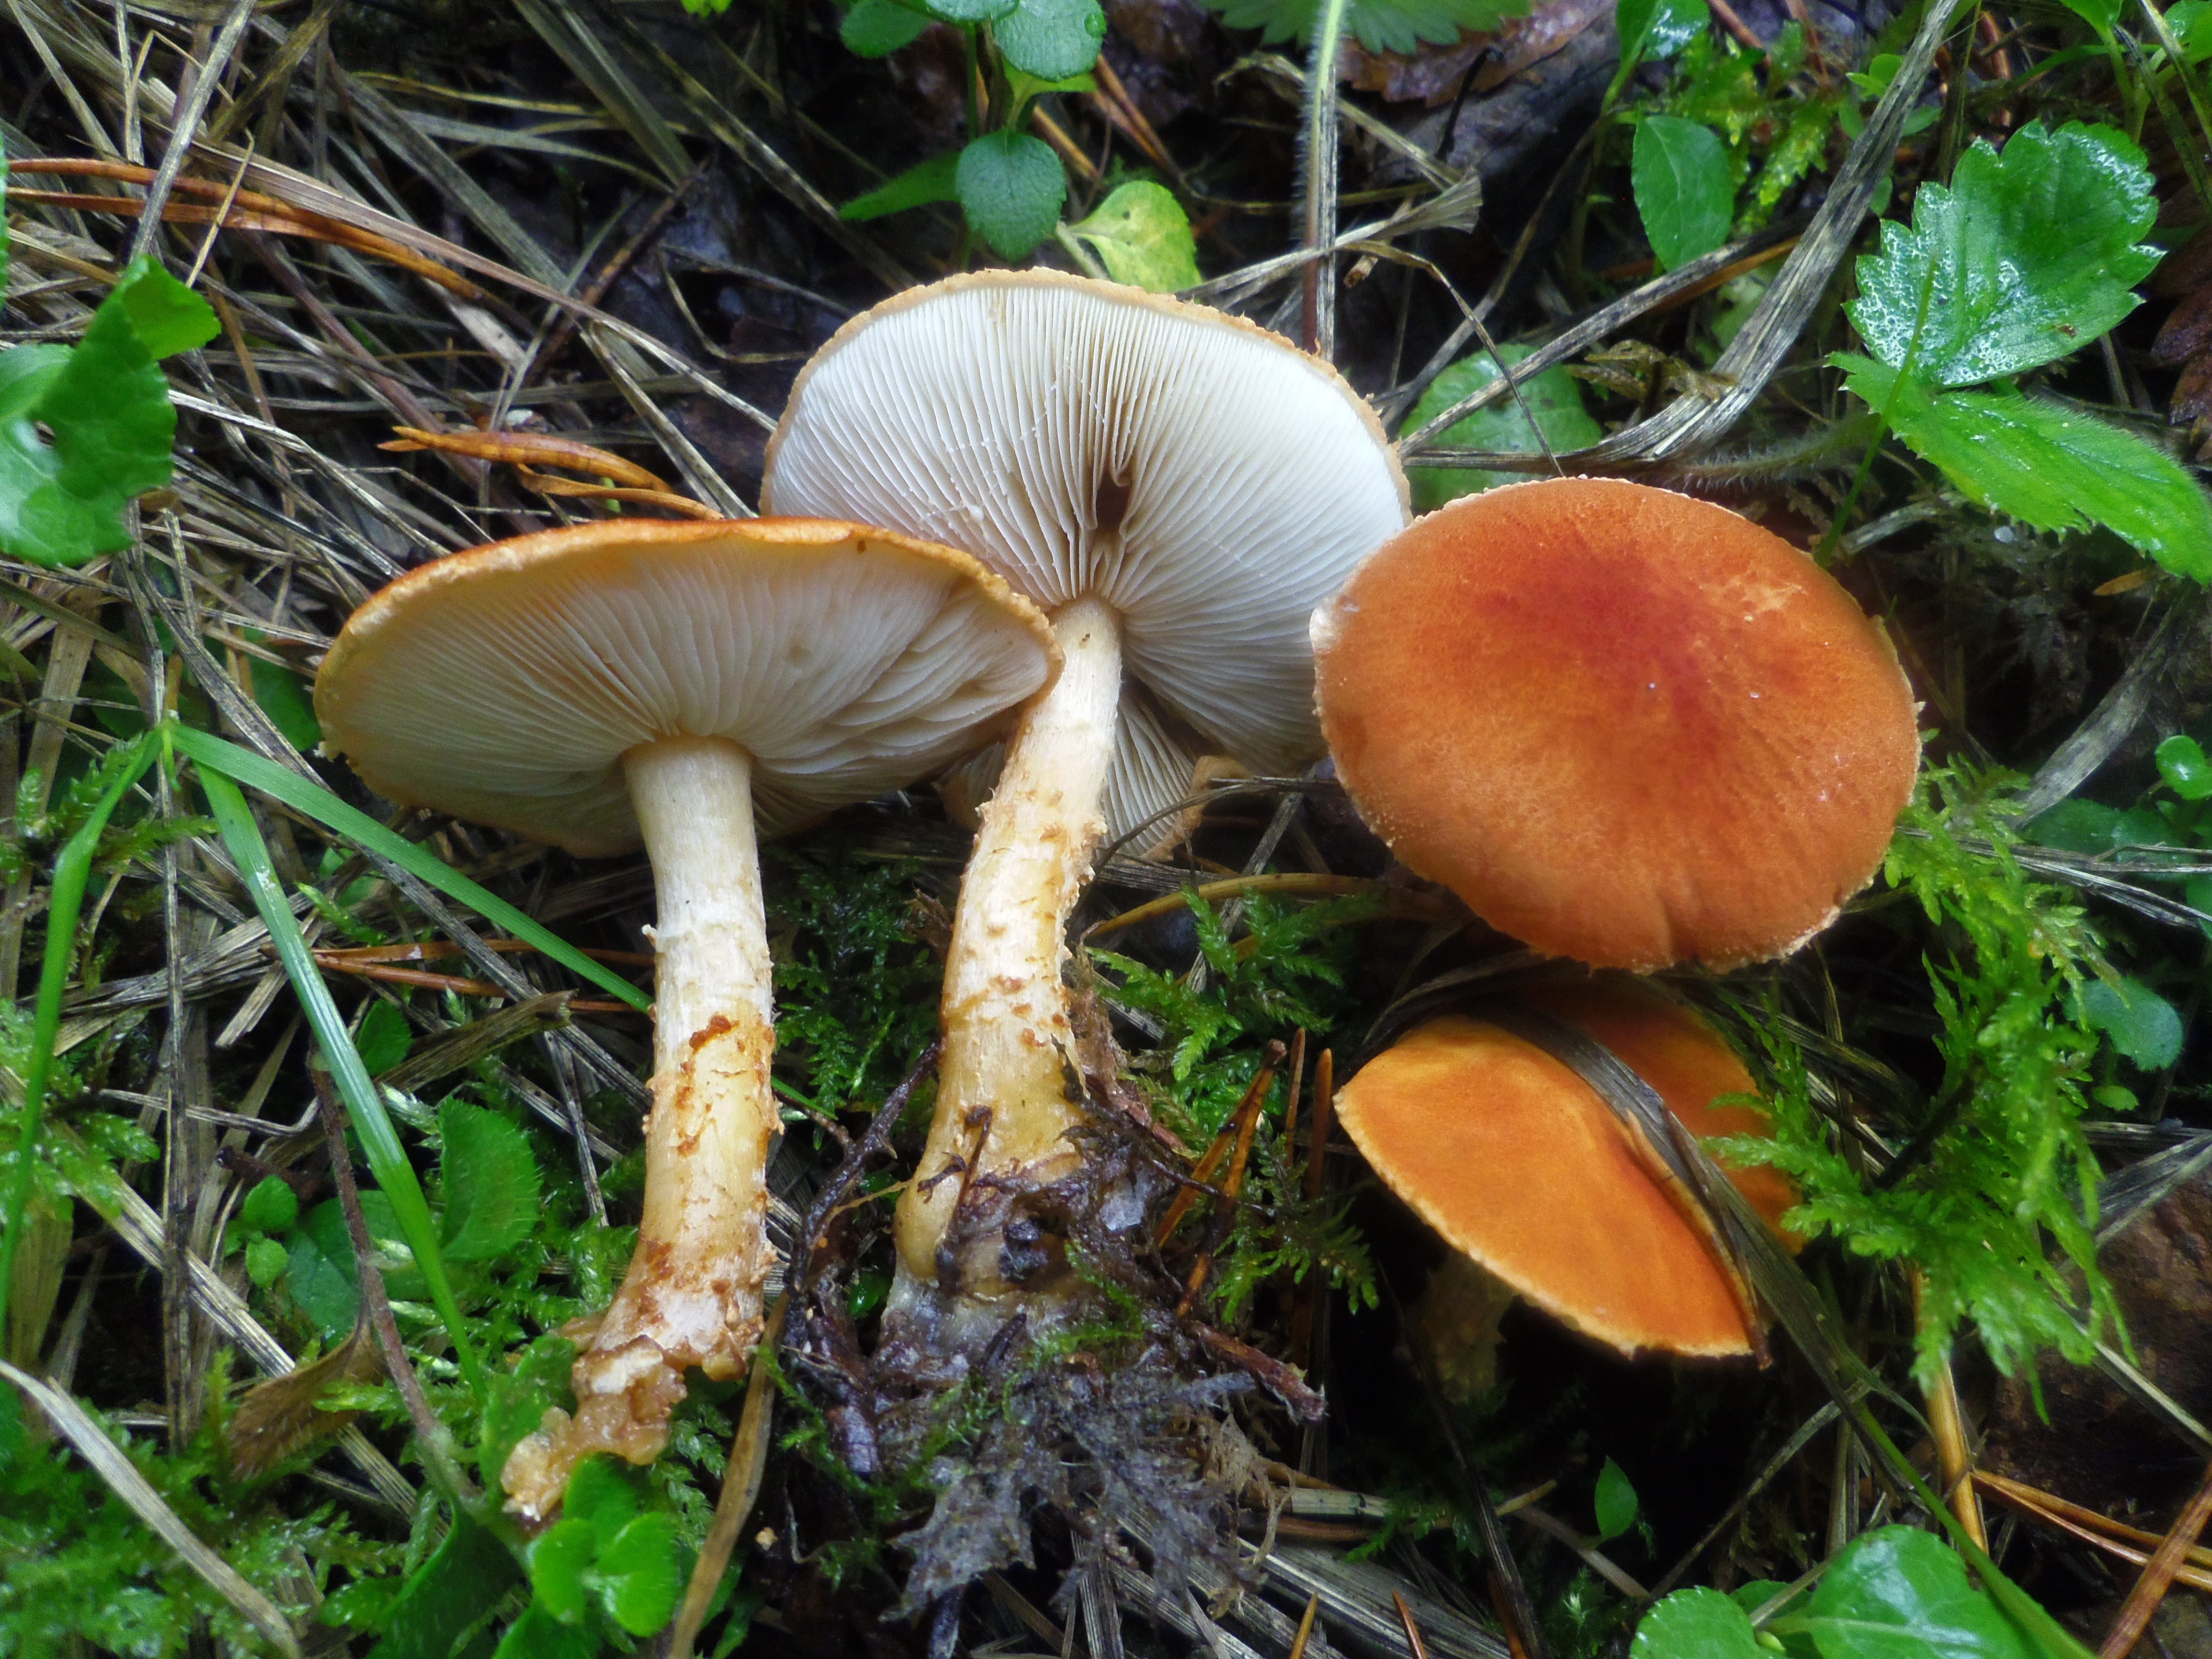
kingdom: Fungi
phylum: Basidiomycota
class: Agaricomycetes
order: Agaricales
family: Agaricaceae
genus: Cystodermella
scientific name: Cystodermella cinnabarina
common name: Cinnabar powdercap
